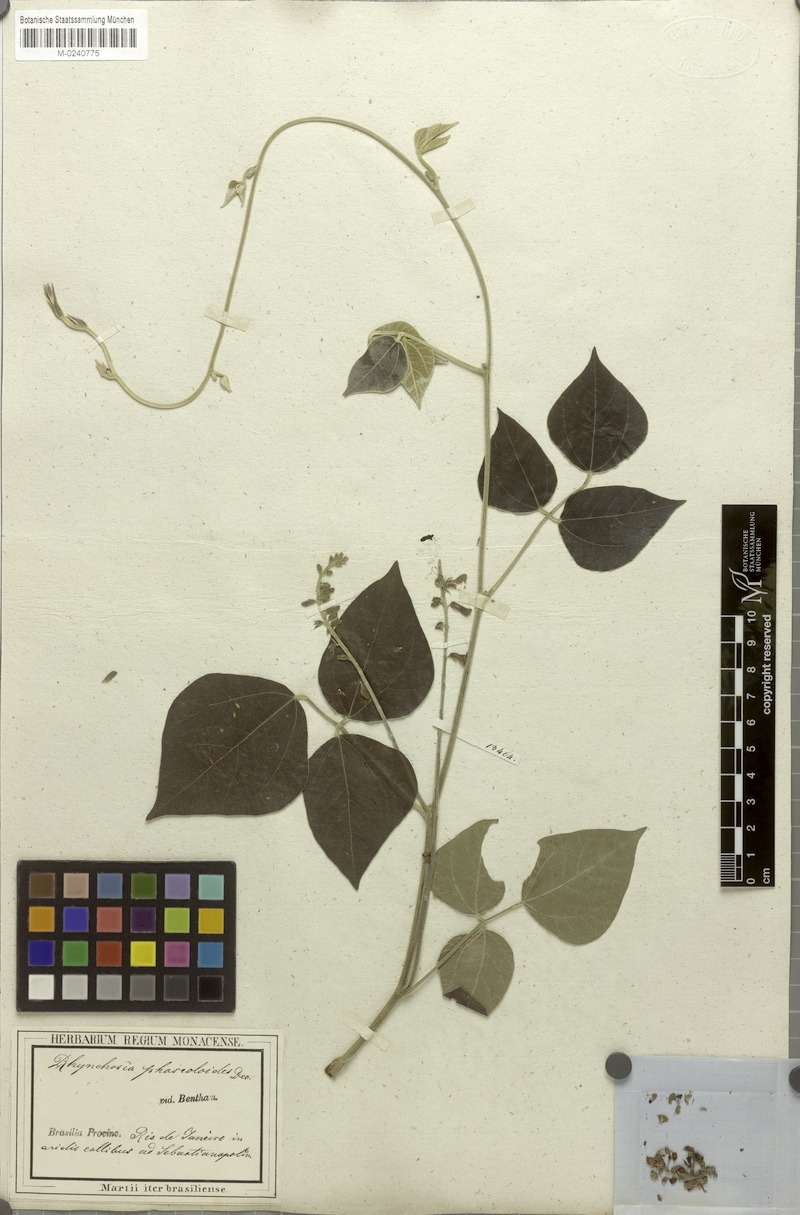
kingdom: Plantae
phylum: Tracheophyta
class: Magnoliopsida
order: Fabales
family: Fabaceae
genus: Rhynchosia
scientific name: Rhynchosia phaseoloides
